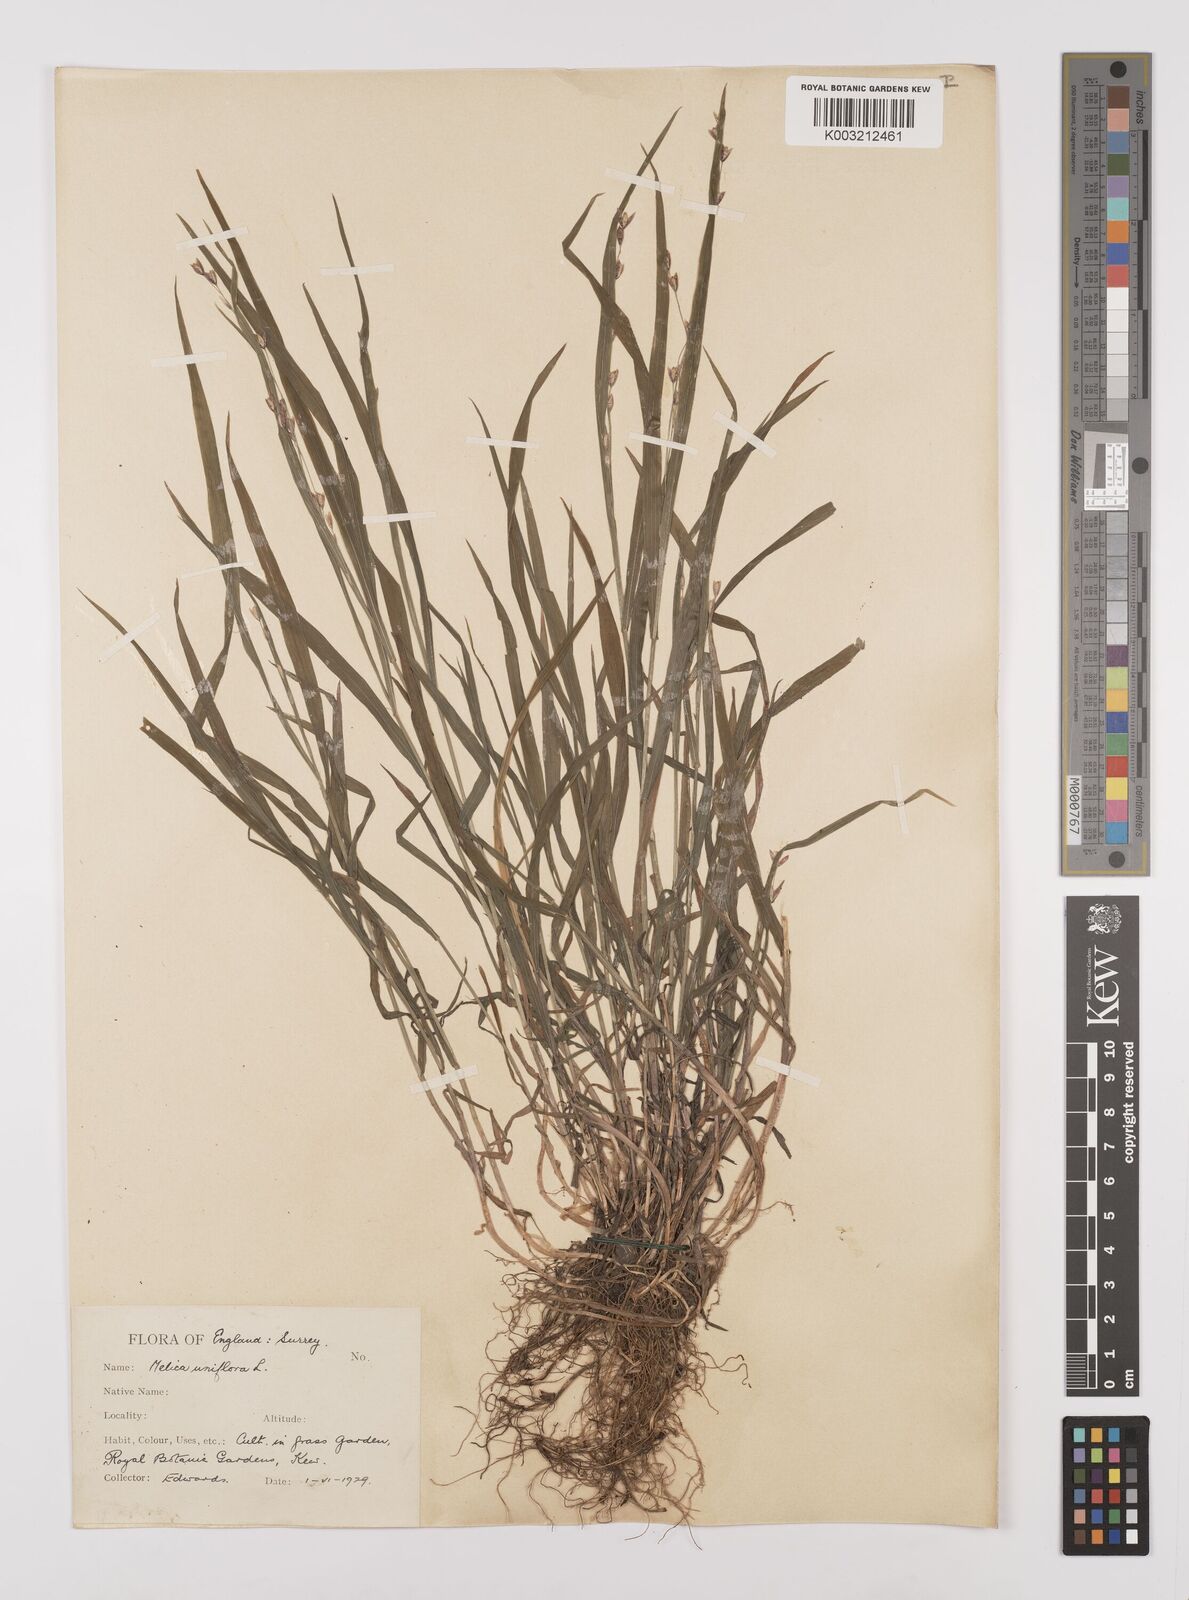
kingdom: Plantae
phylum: Tracheophyta
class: Liliopsida
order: Poales
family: Poaceae
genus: Melica
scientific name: Melica uniflora
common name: Wood melick
